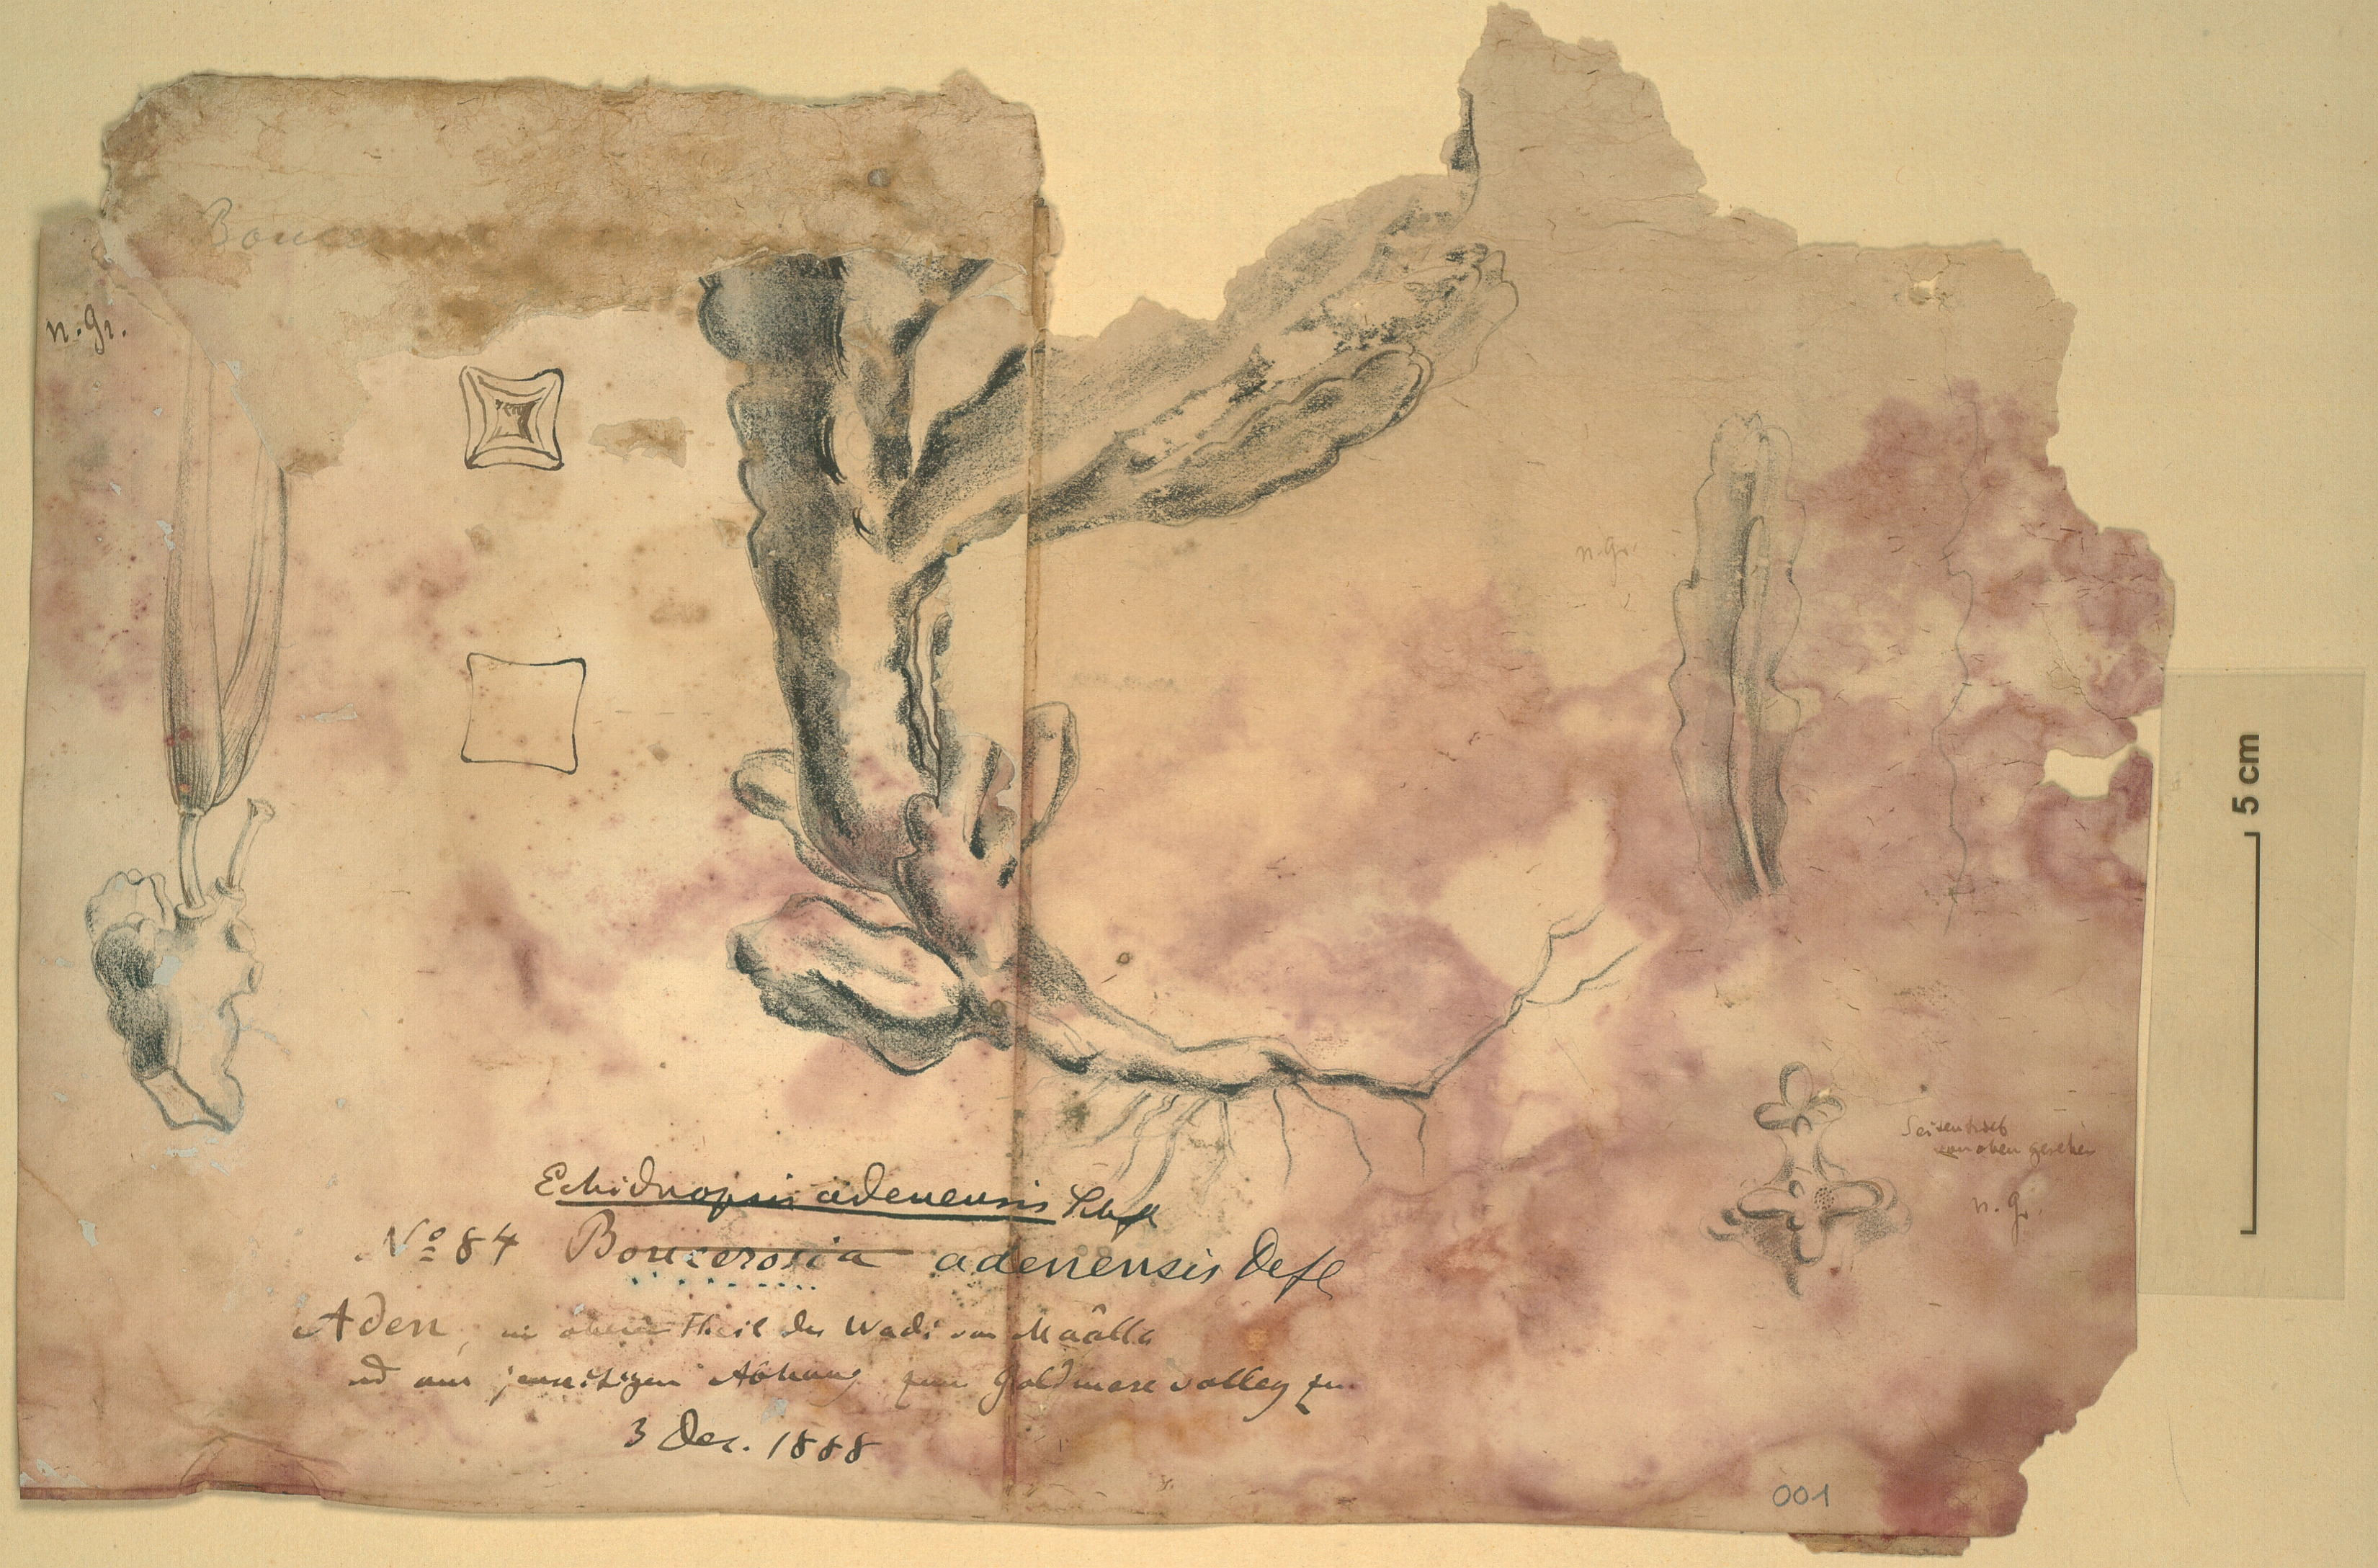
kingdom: Plantae
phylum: Tracheophyta
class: Magnoliopsida
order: Gentianales
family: Apocynaceae
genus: Ceropegia
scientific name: Ceropegia adenensis
